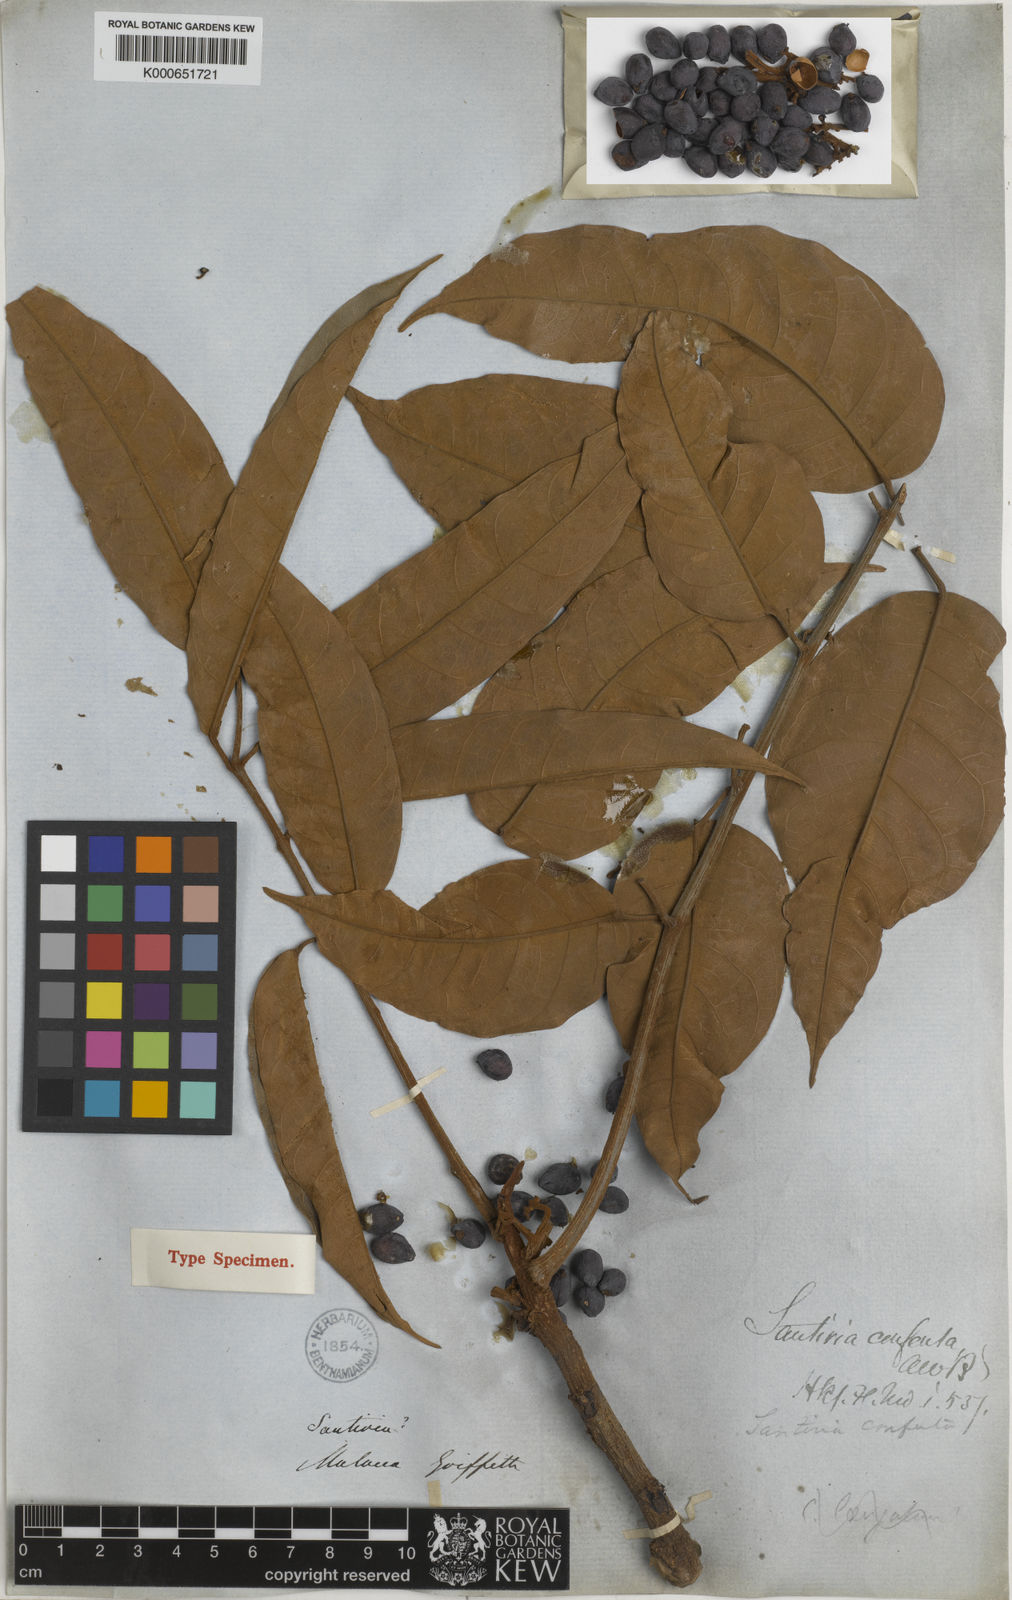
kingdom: Plantae
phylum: Tracheophyta
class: Magnoliopsida
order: Sapindales
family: Burseraceae
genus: Santiria
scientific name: Santiria conferta
